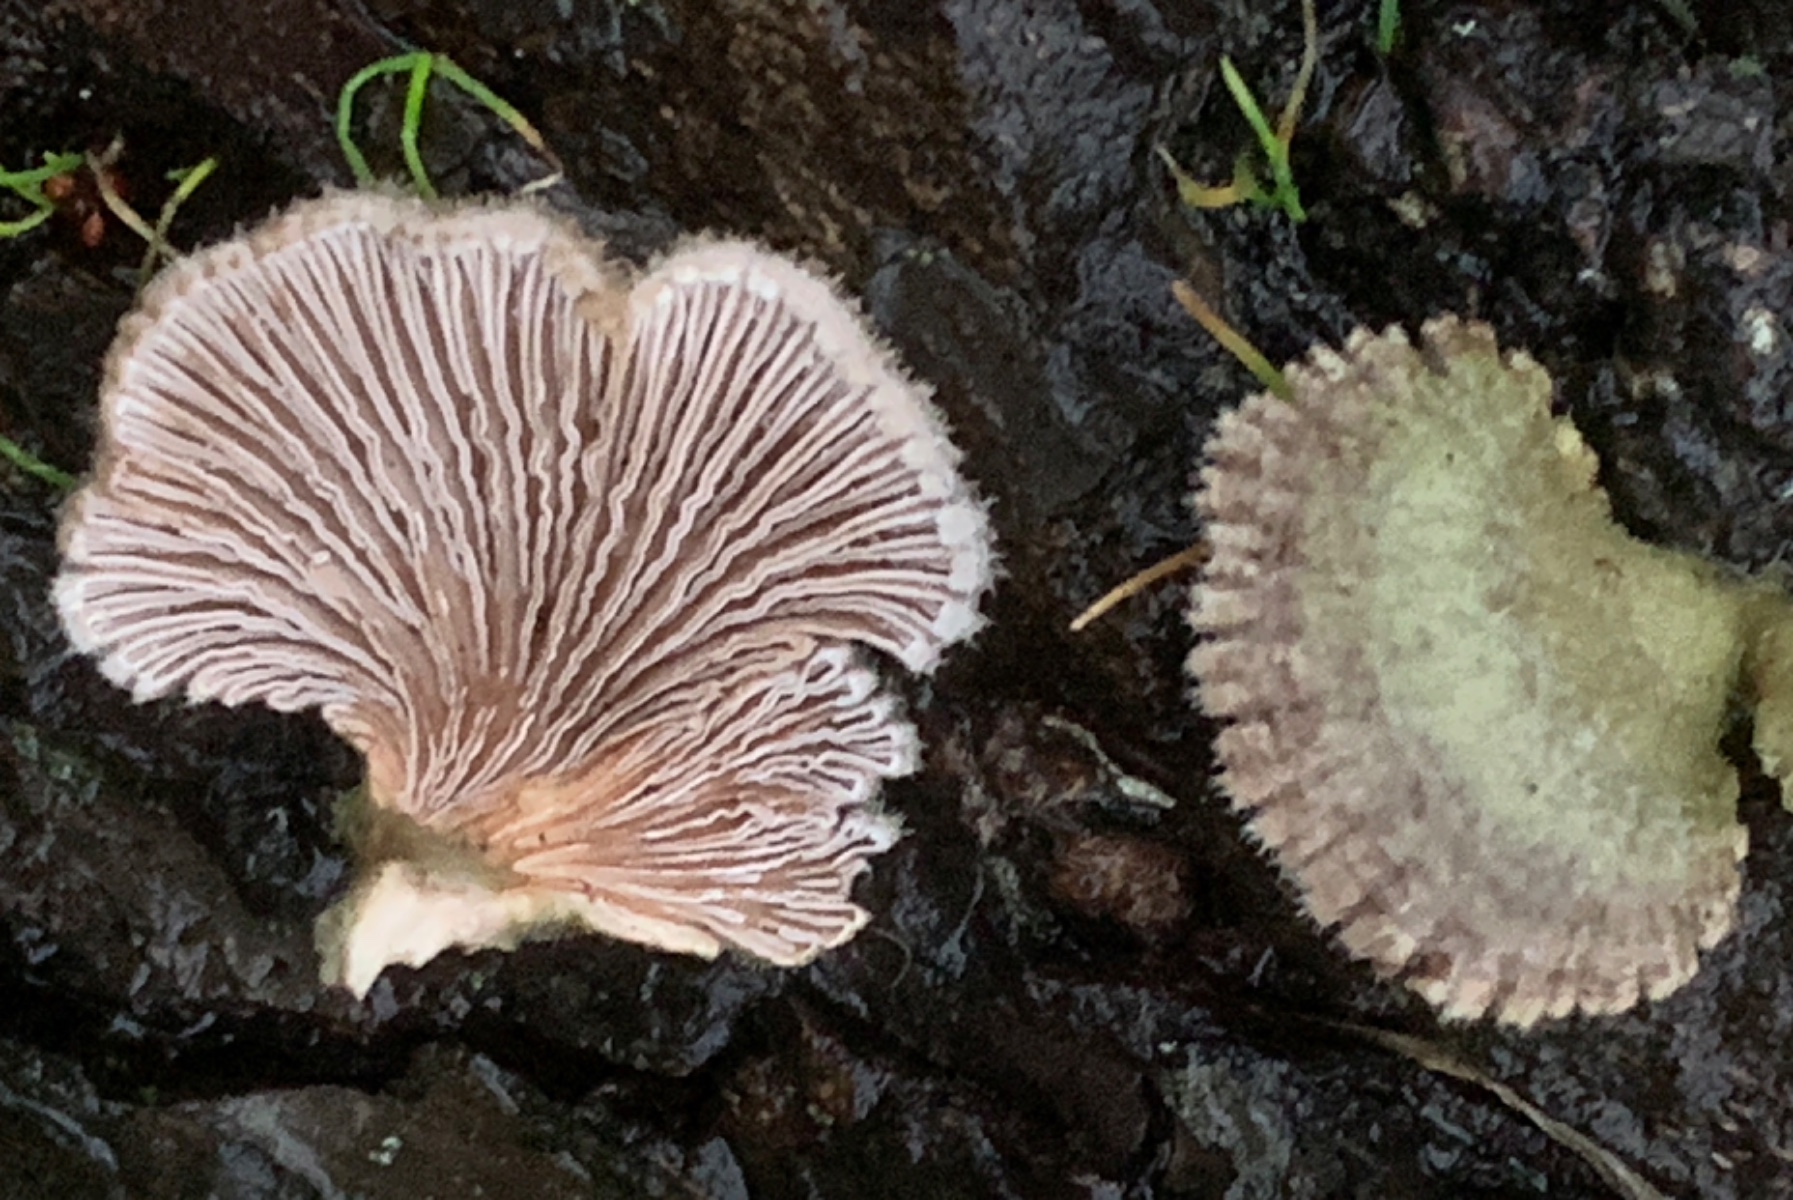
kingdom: Fungi
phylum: Basidiomycota
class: Agaricomycetes
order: Agaricales
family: Schizophyllaceae
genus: Schizophyllum
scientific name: Schizophyllum commune
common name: kløvblad
